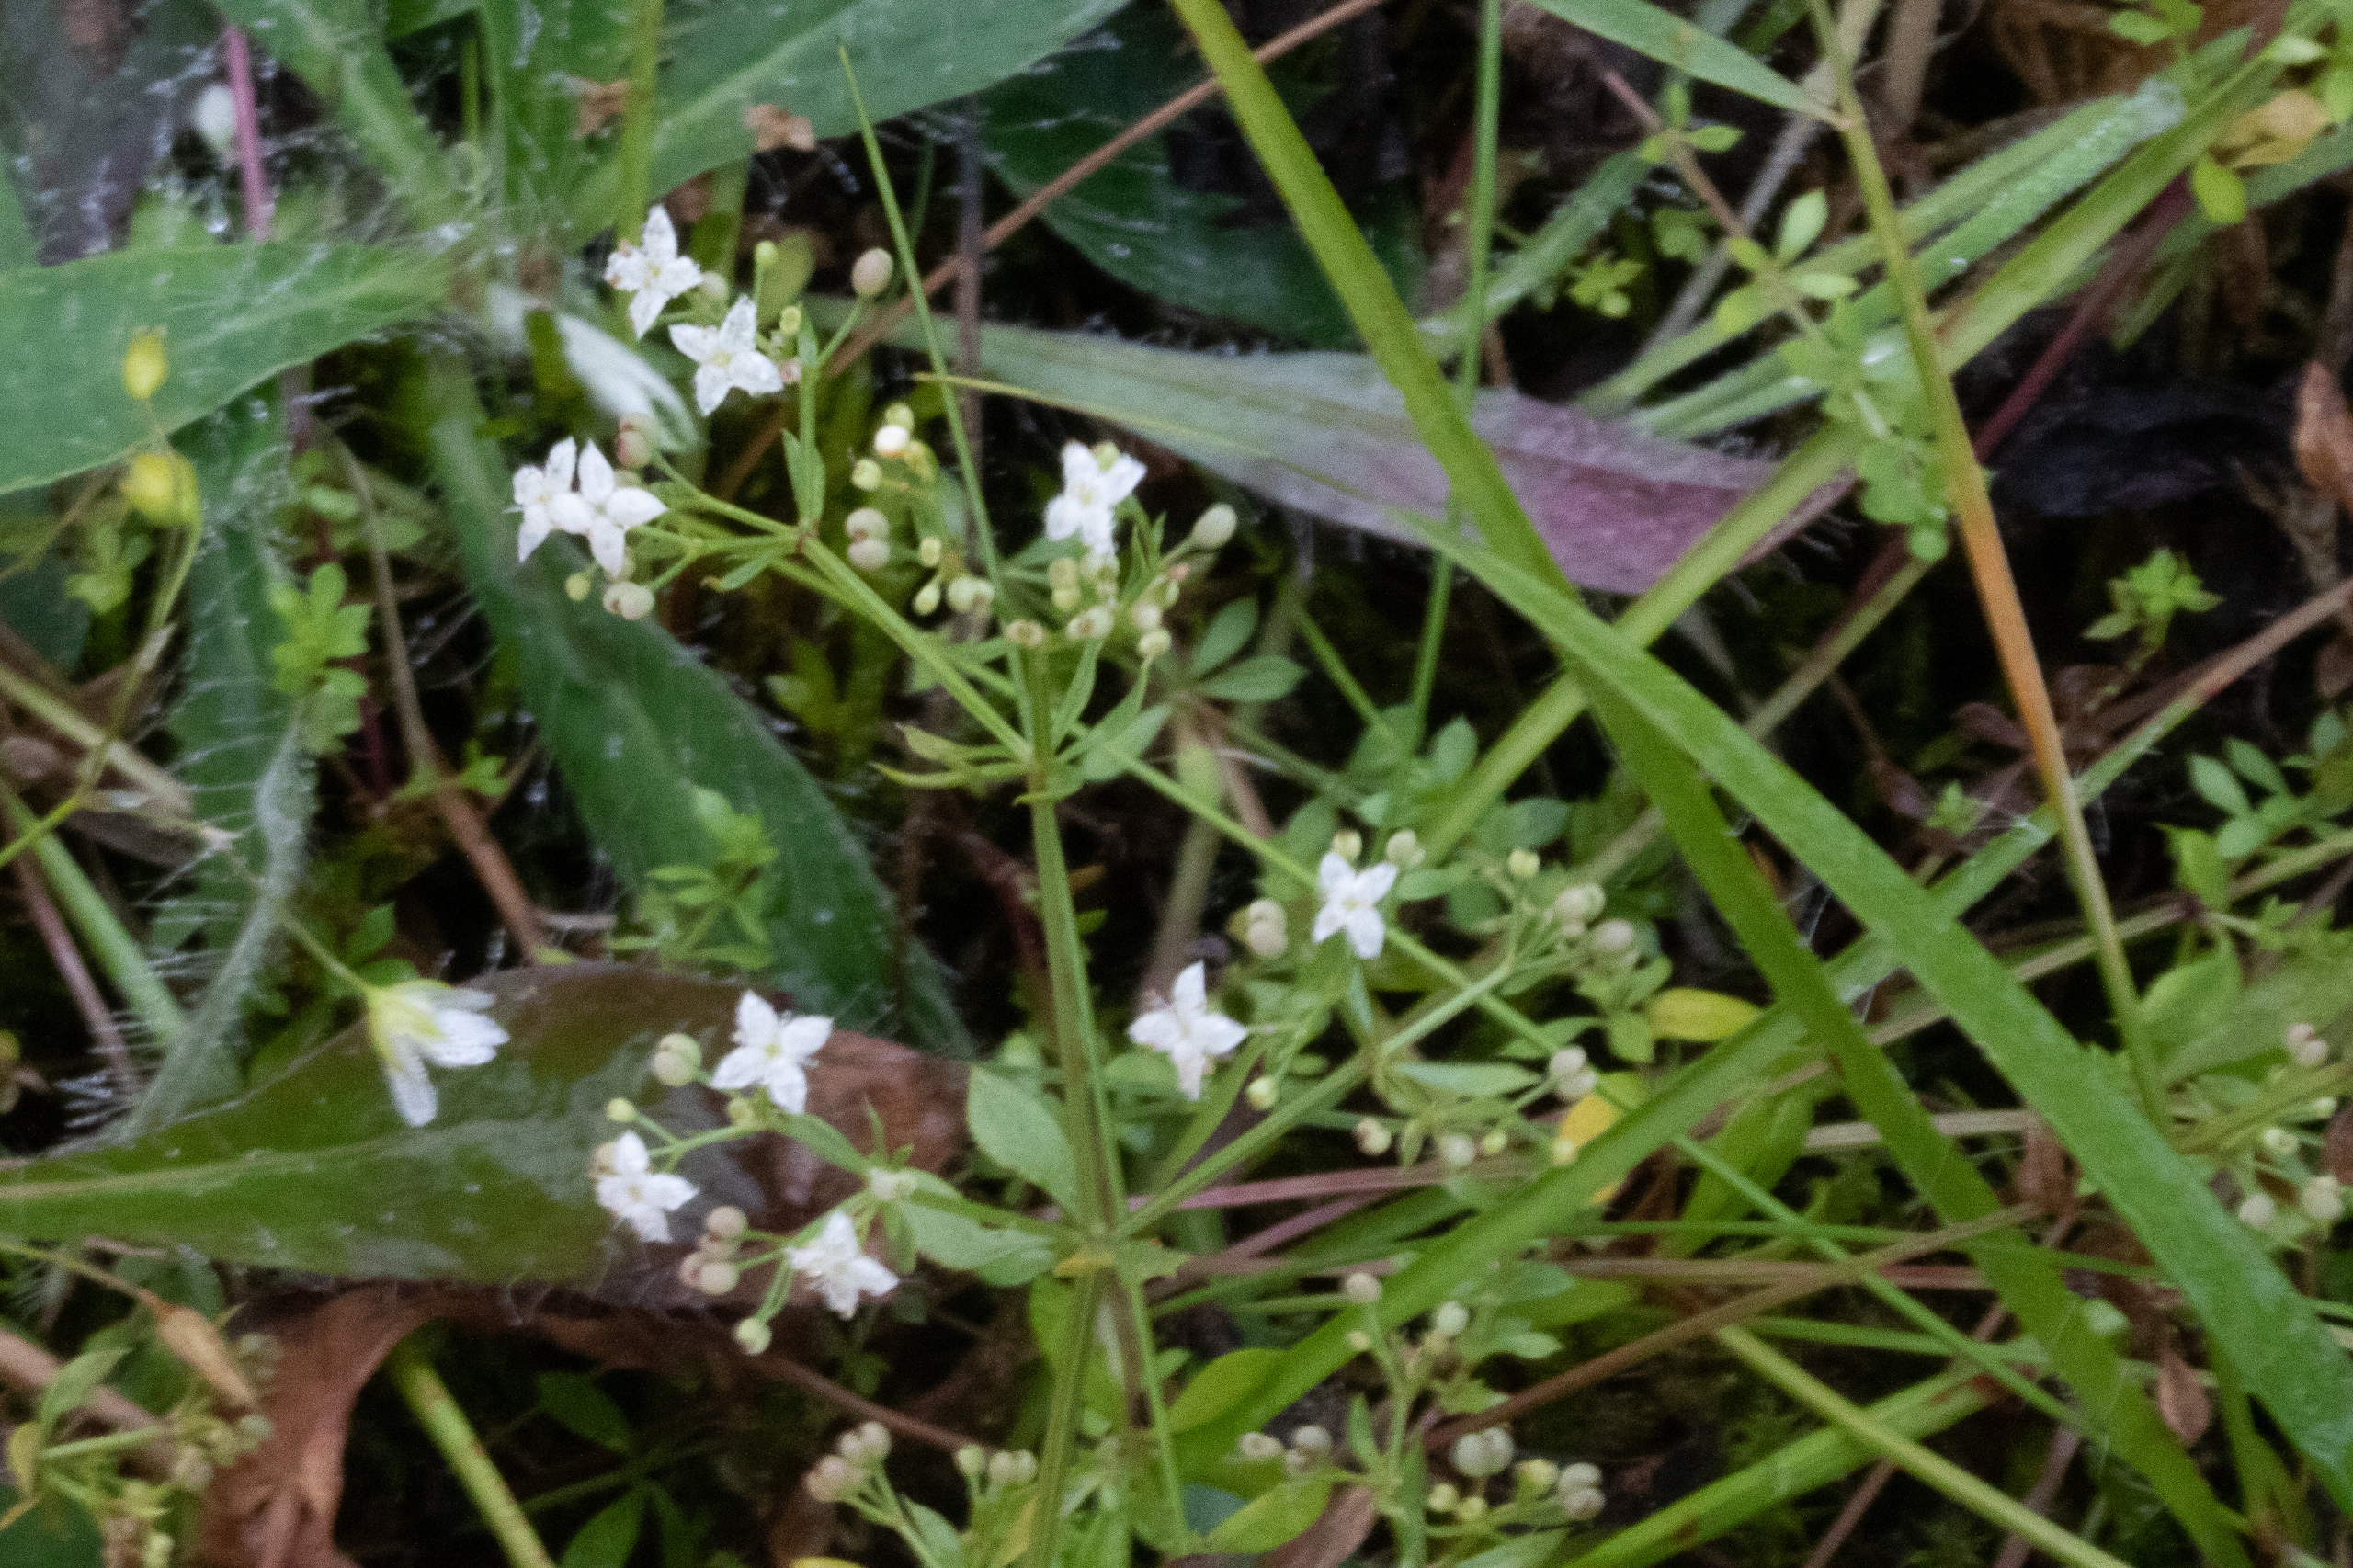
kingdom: Plantae
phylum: Tracheophyta
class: Magnoliopsida
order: Gentianales
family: Rubiaceae
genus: Galium
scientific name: Galium mollugo
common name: Hvid snerre
